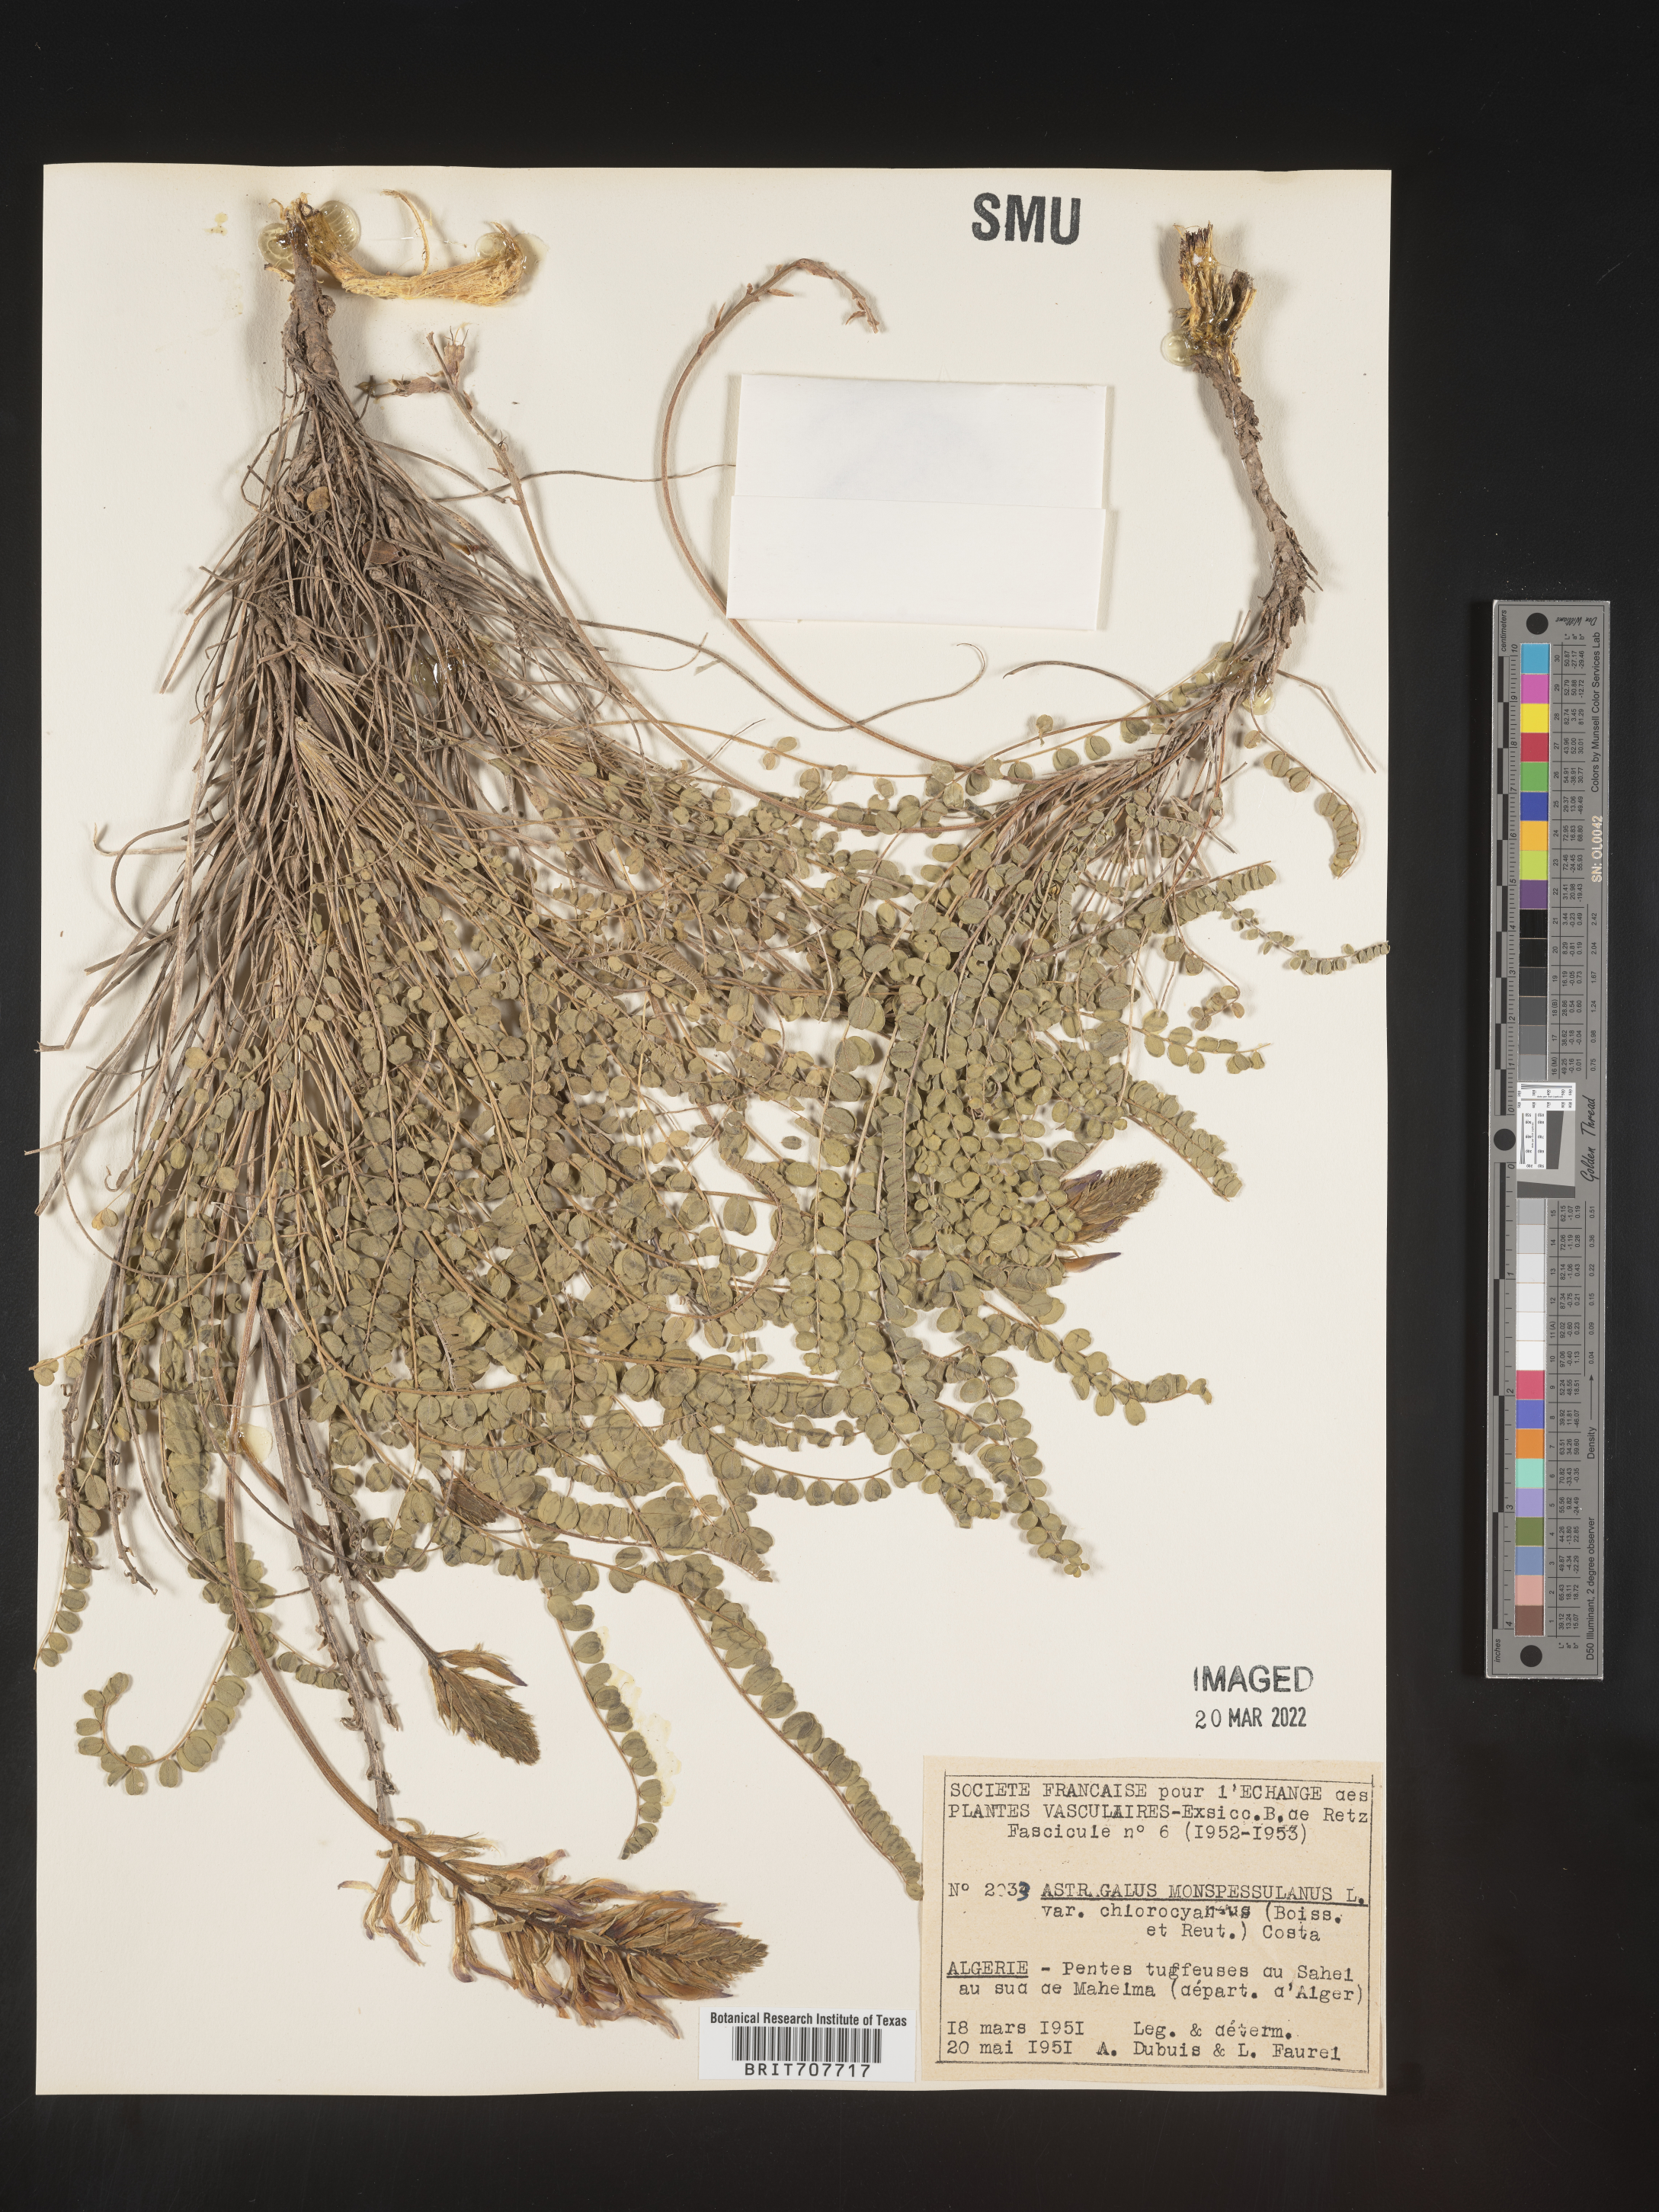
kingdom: Plantae
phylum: Tracheophyta
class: Magnoliopsida
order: Fabales
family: Fabaceae
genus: Astragalus
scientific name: Astragalus
